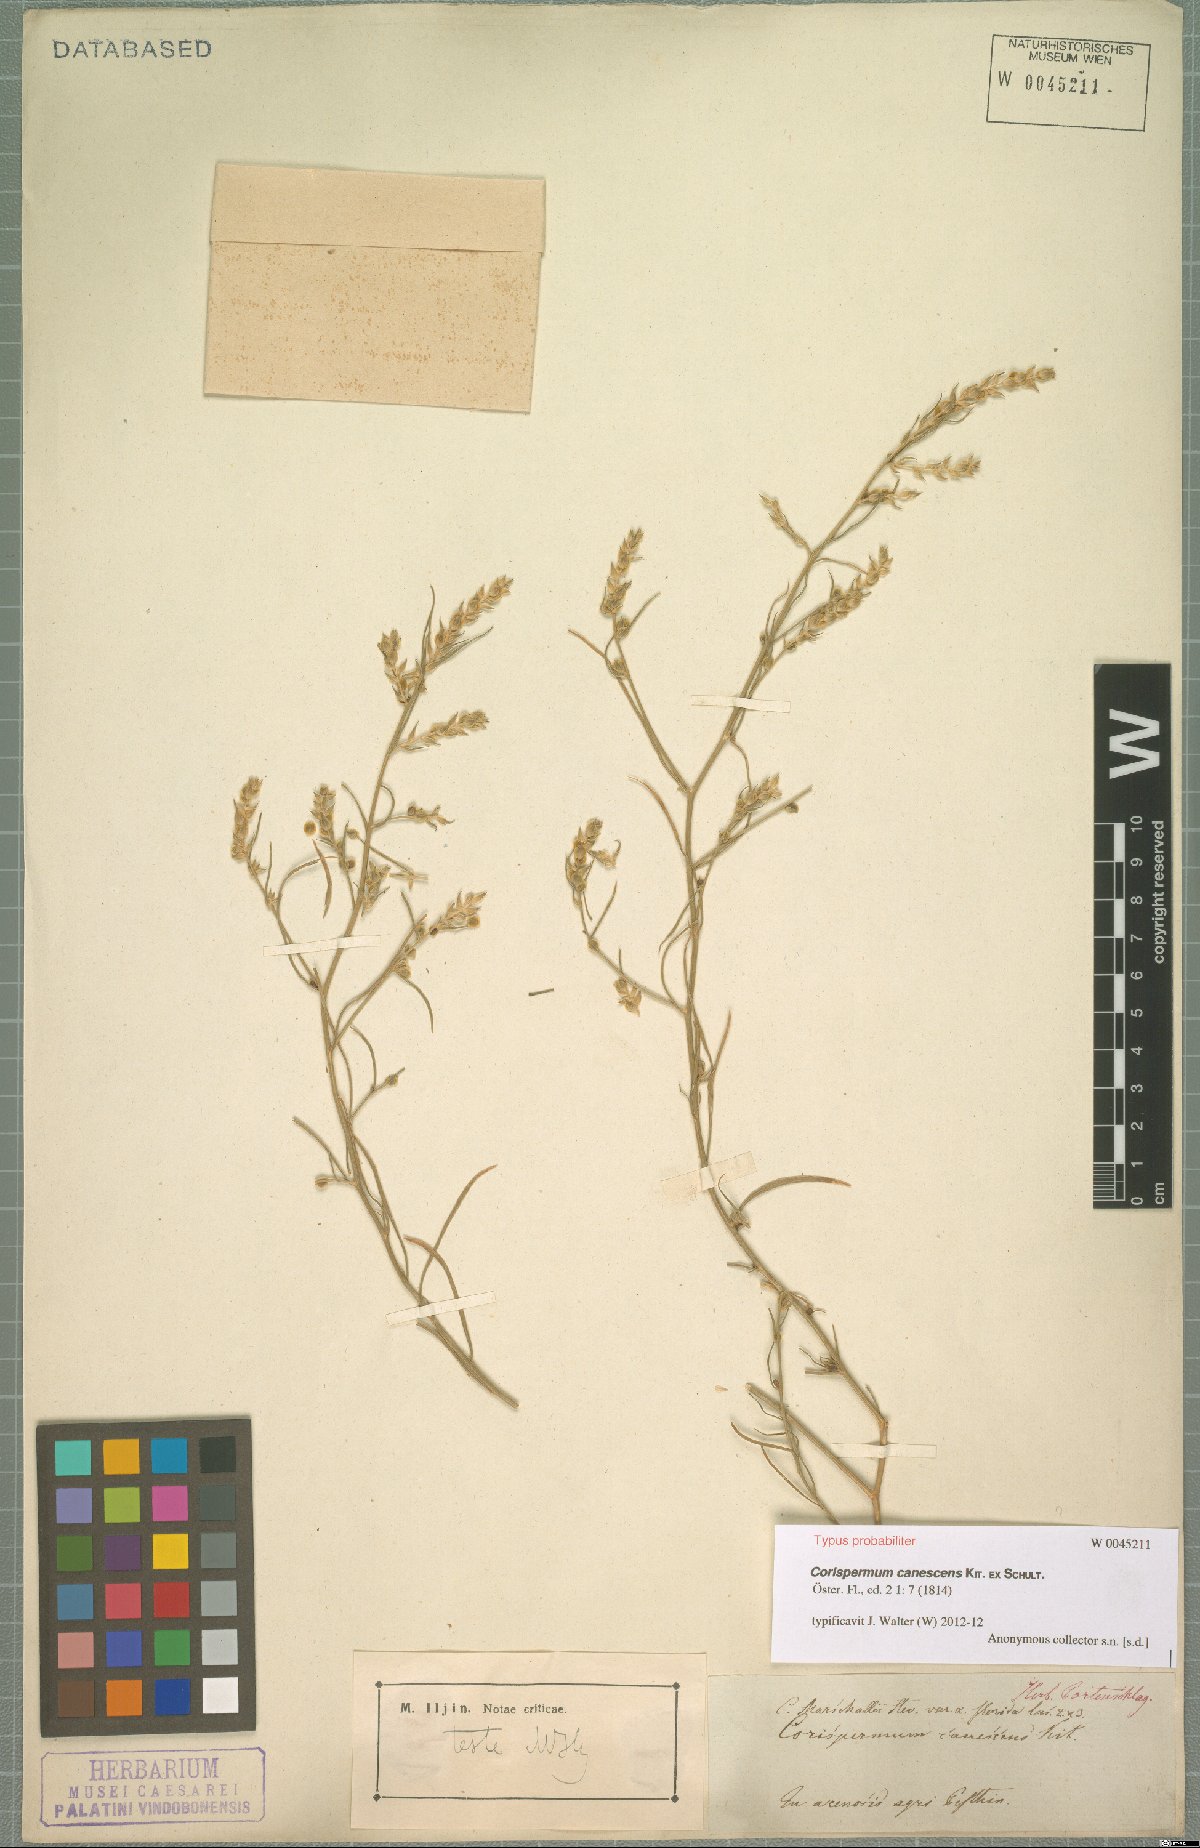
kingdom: Plantae
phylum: Tracheophyta
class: Magnoliopsida
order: Caryophyllales
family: Amaranthaceae
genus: Corispermum
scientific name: Corispermum canescens
